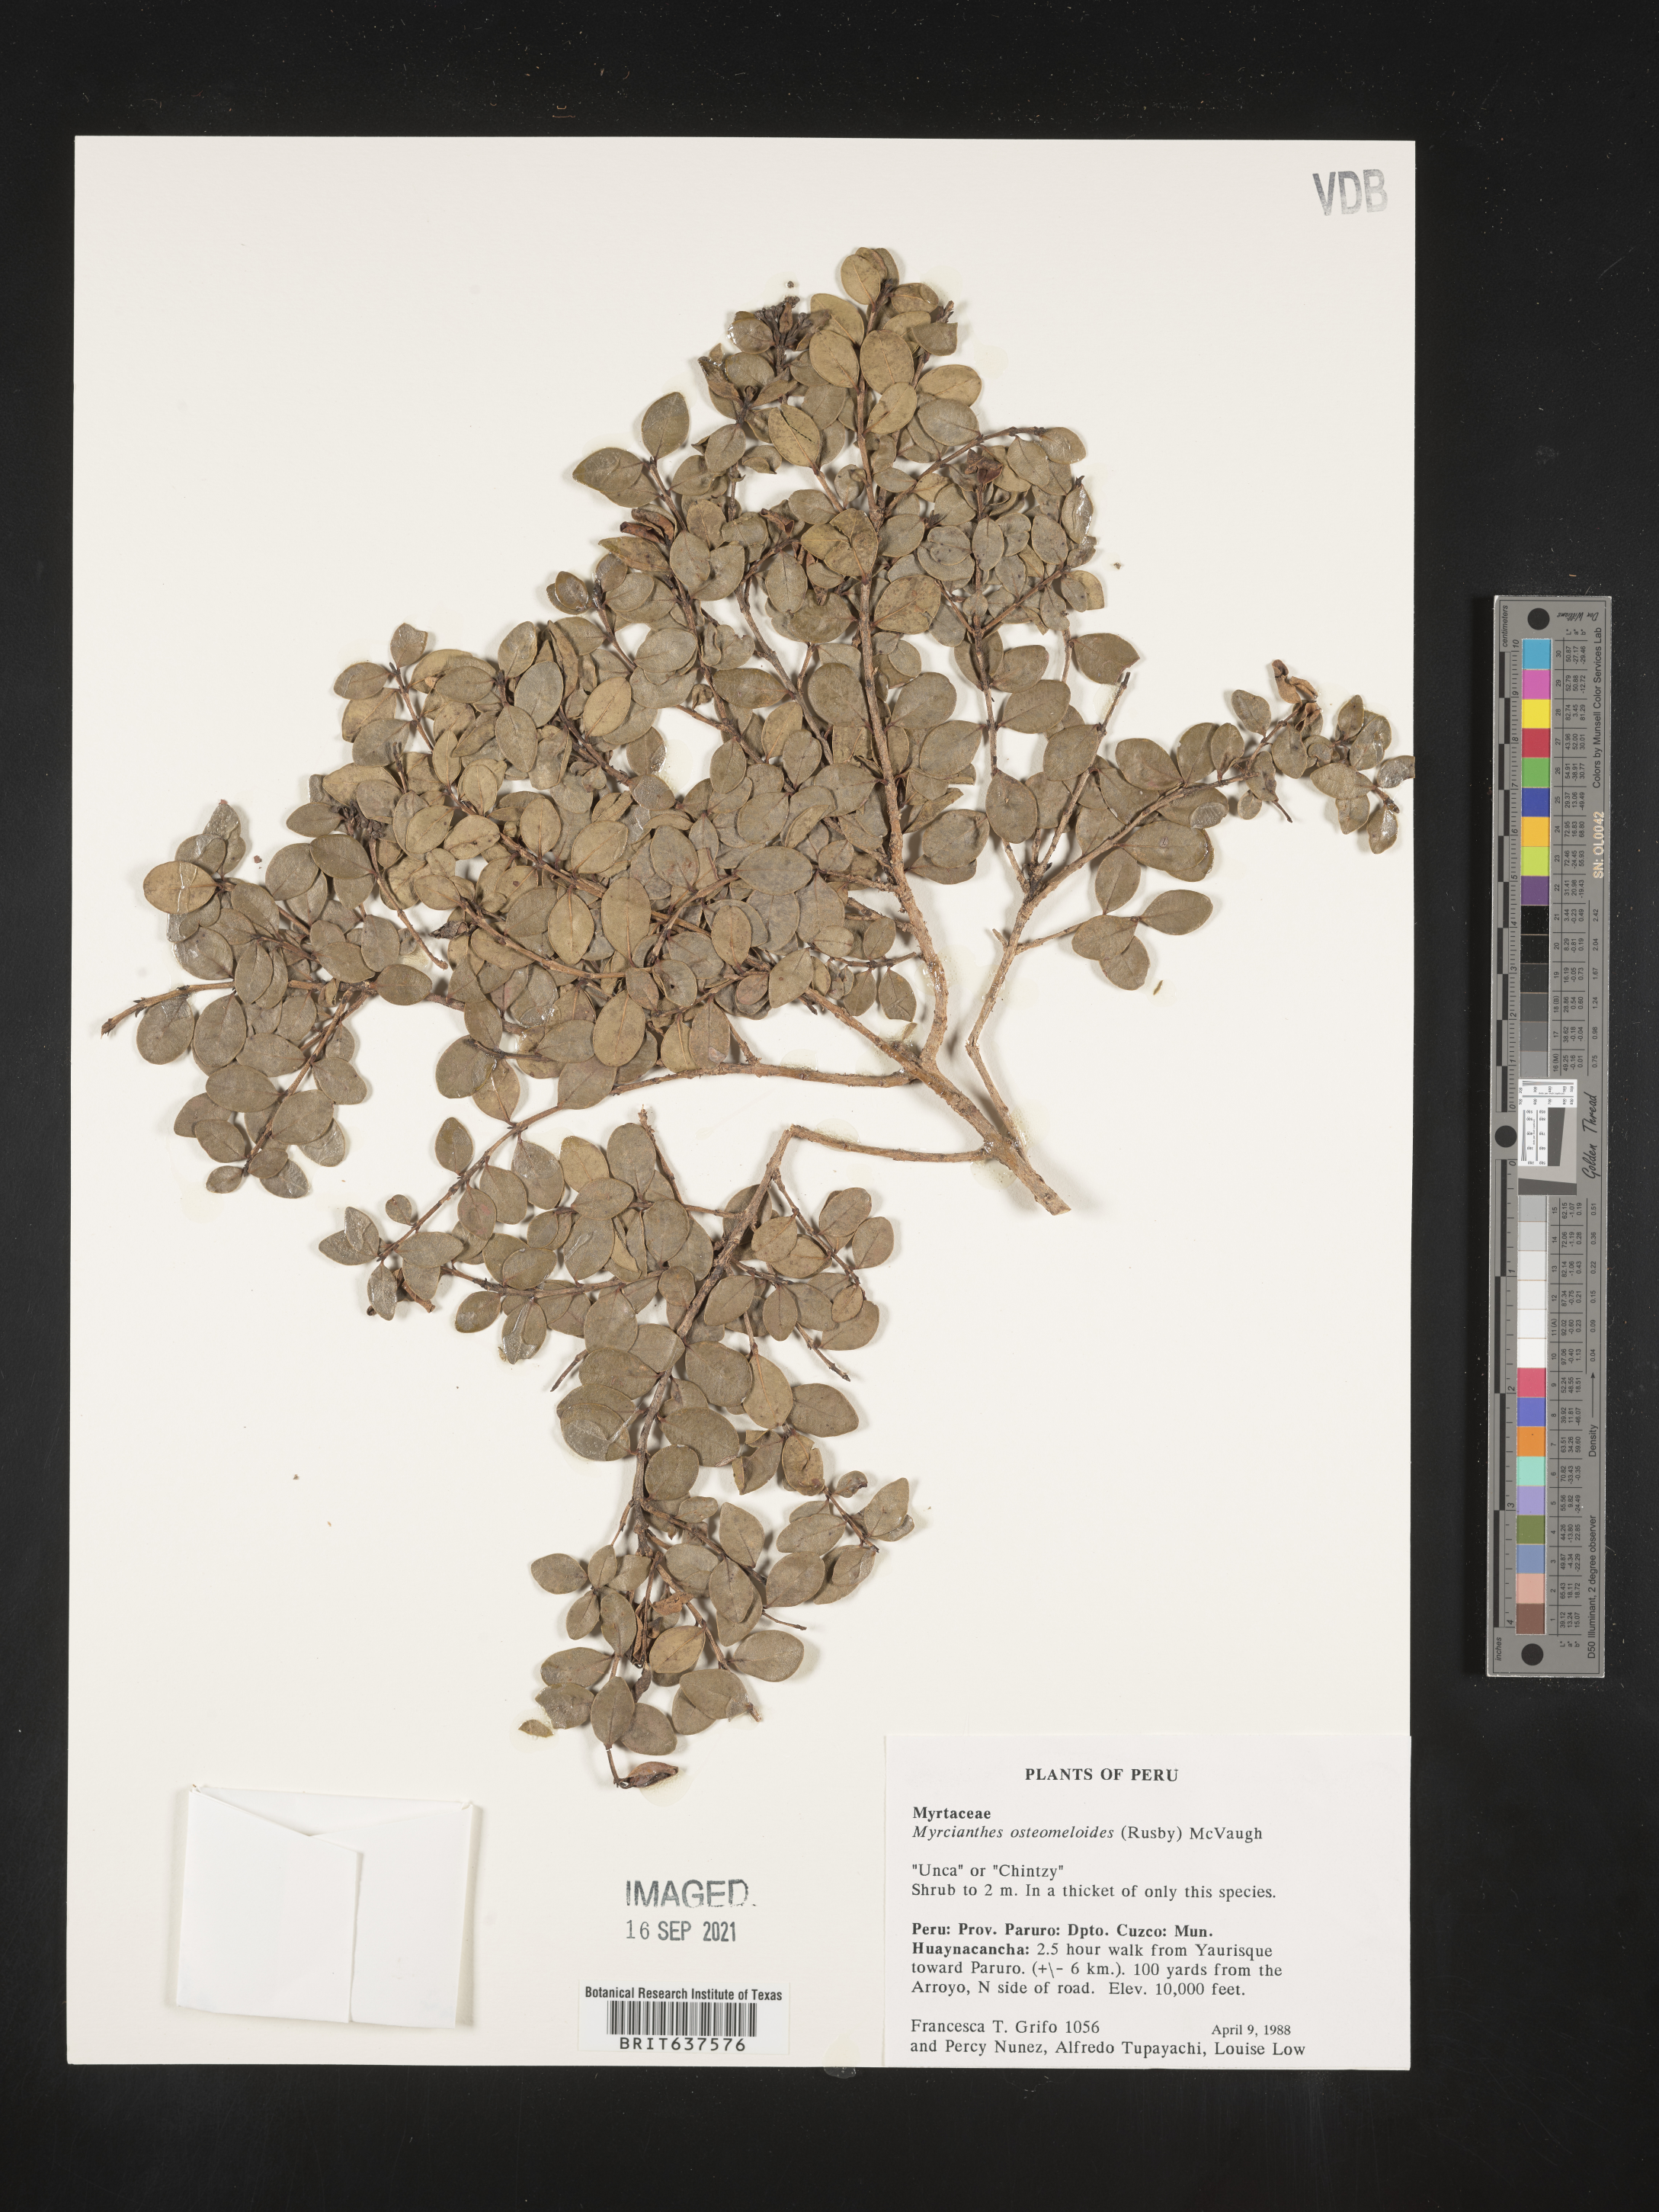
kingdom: Plantae
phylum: Tracheophyta
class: Magnoliopsida
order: Myrtales
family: Myrtaceae
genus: Myrcianthes
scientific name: Myrcianthes
